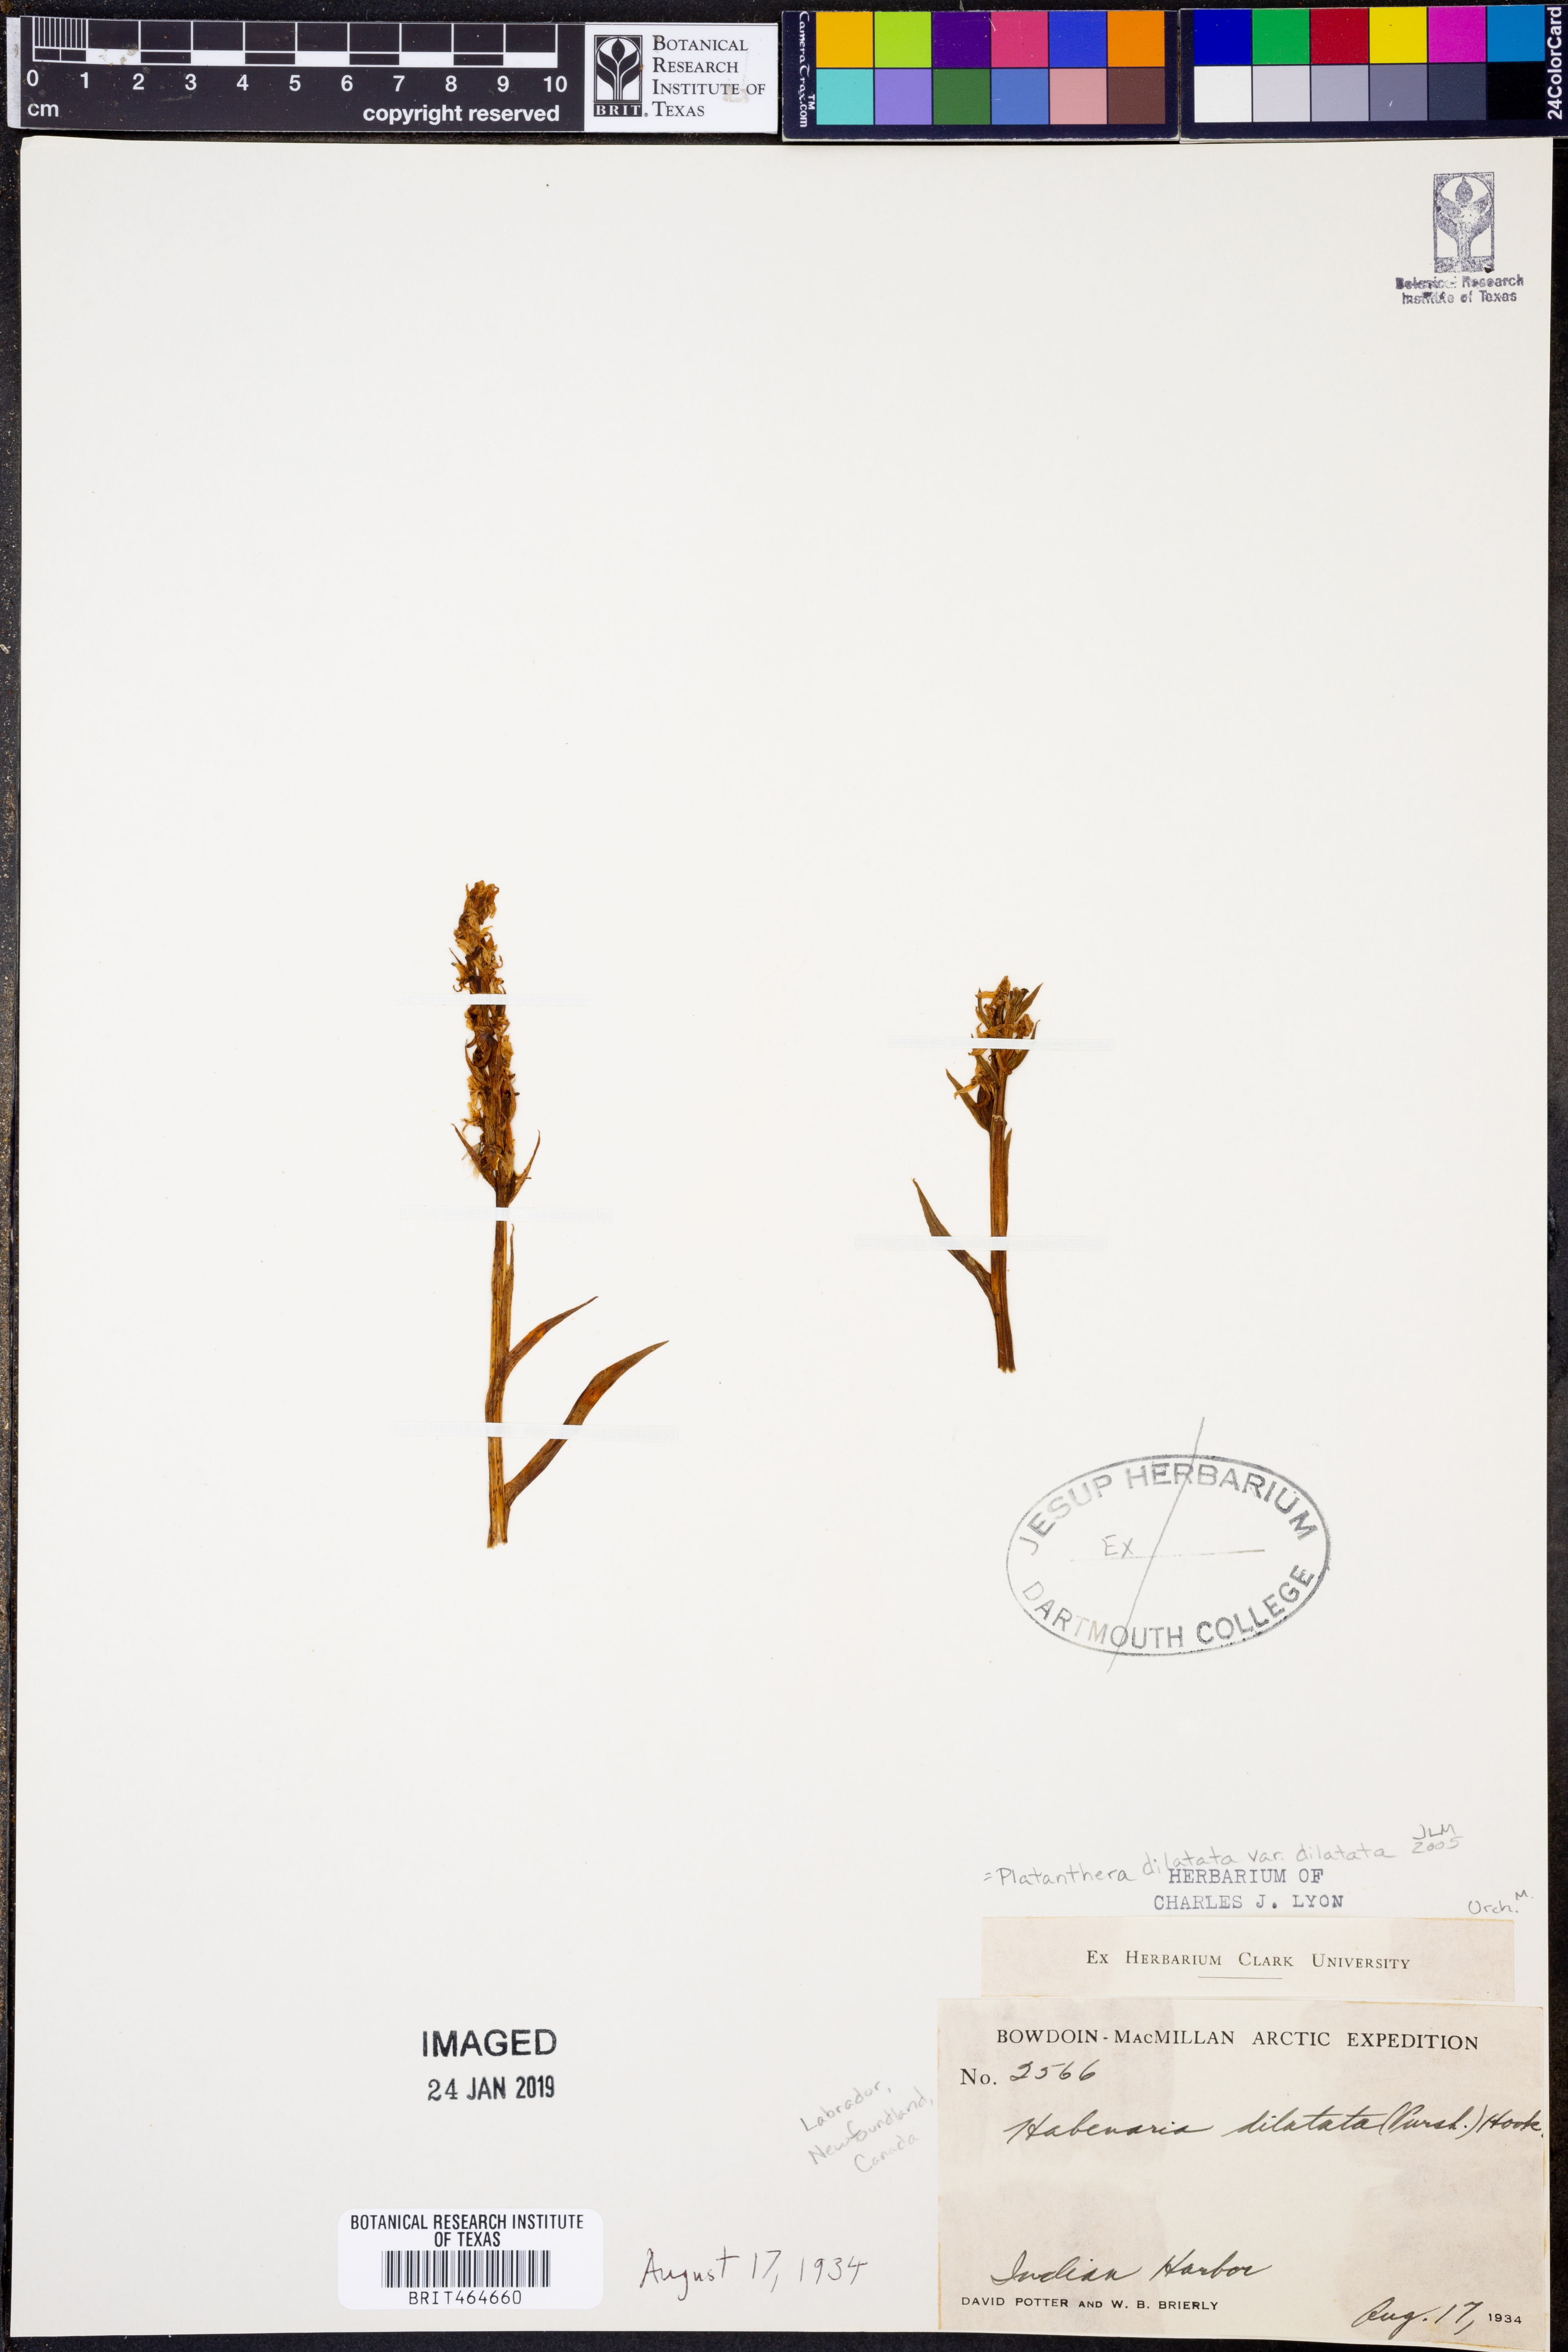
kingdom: Plantae
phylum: Tracheophyta
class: Liliopsida
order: Asparagales
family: Orchidaceae
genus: Platanthera
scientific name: Platanthera dilatata
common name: Bog candles
